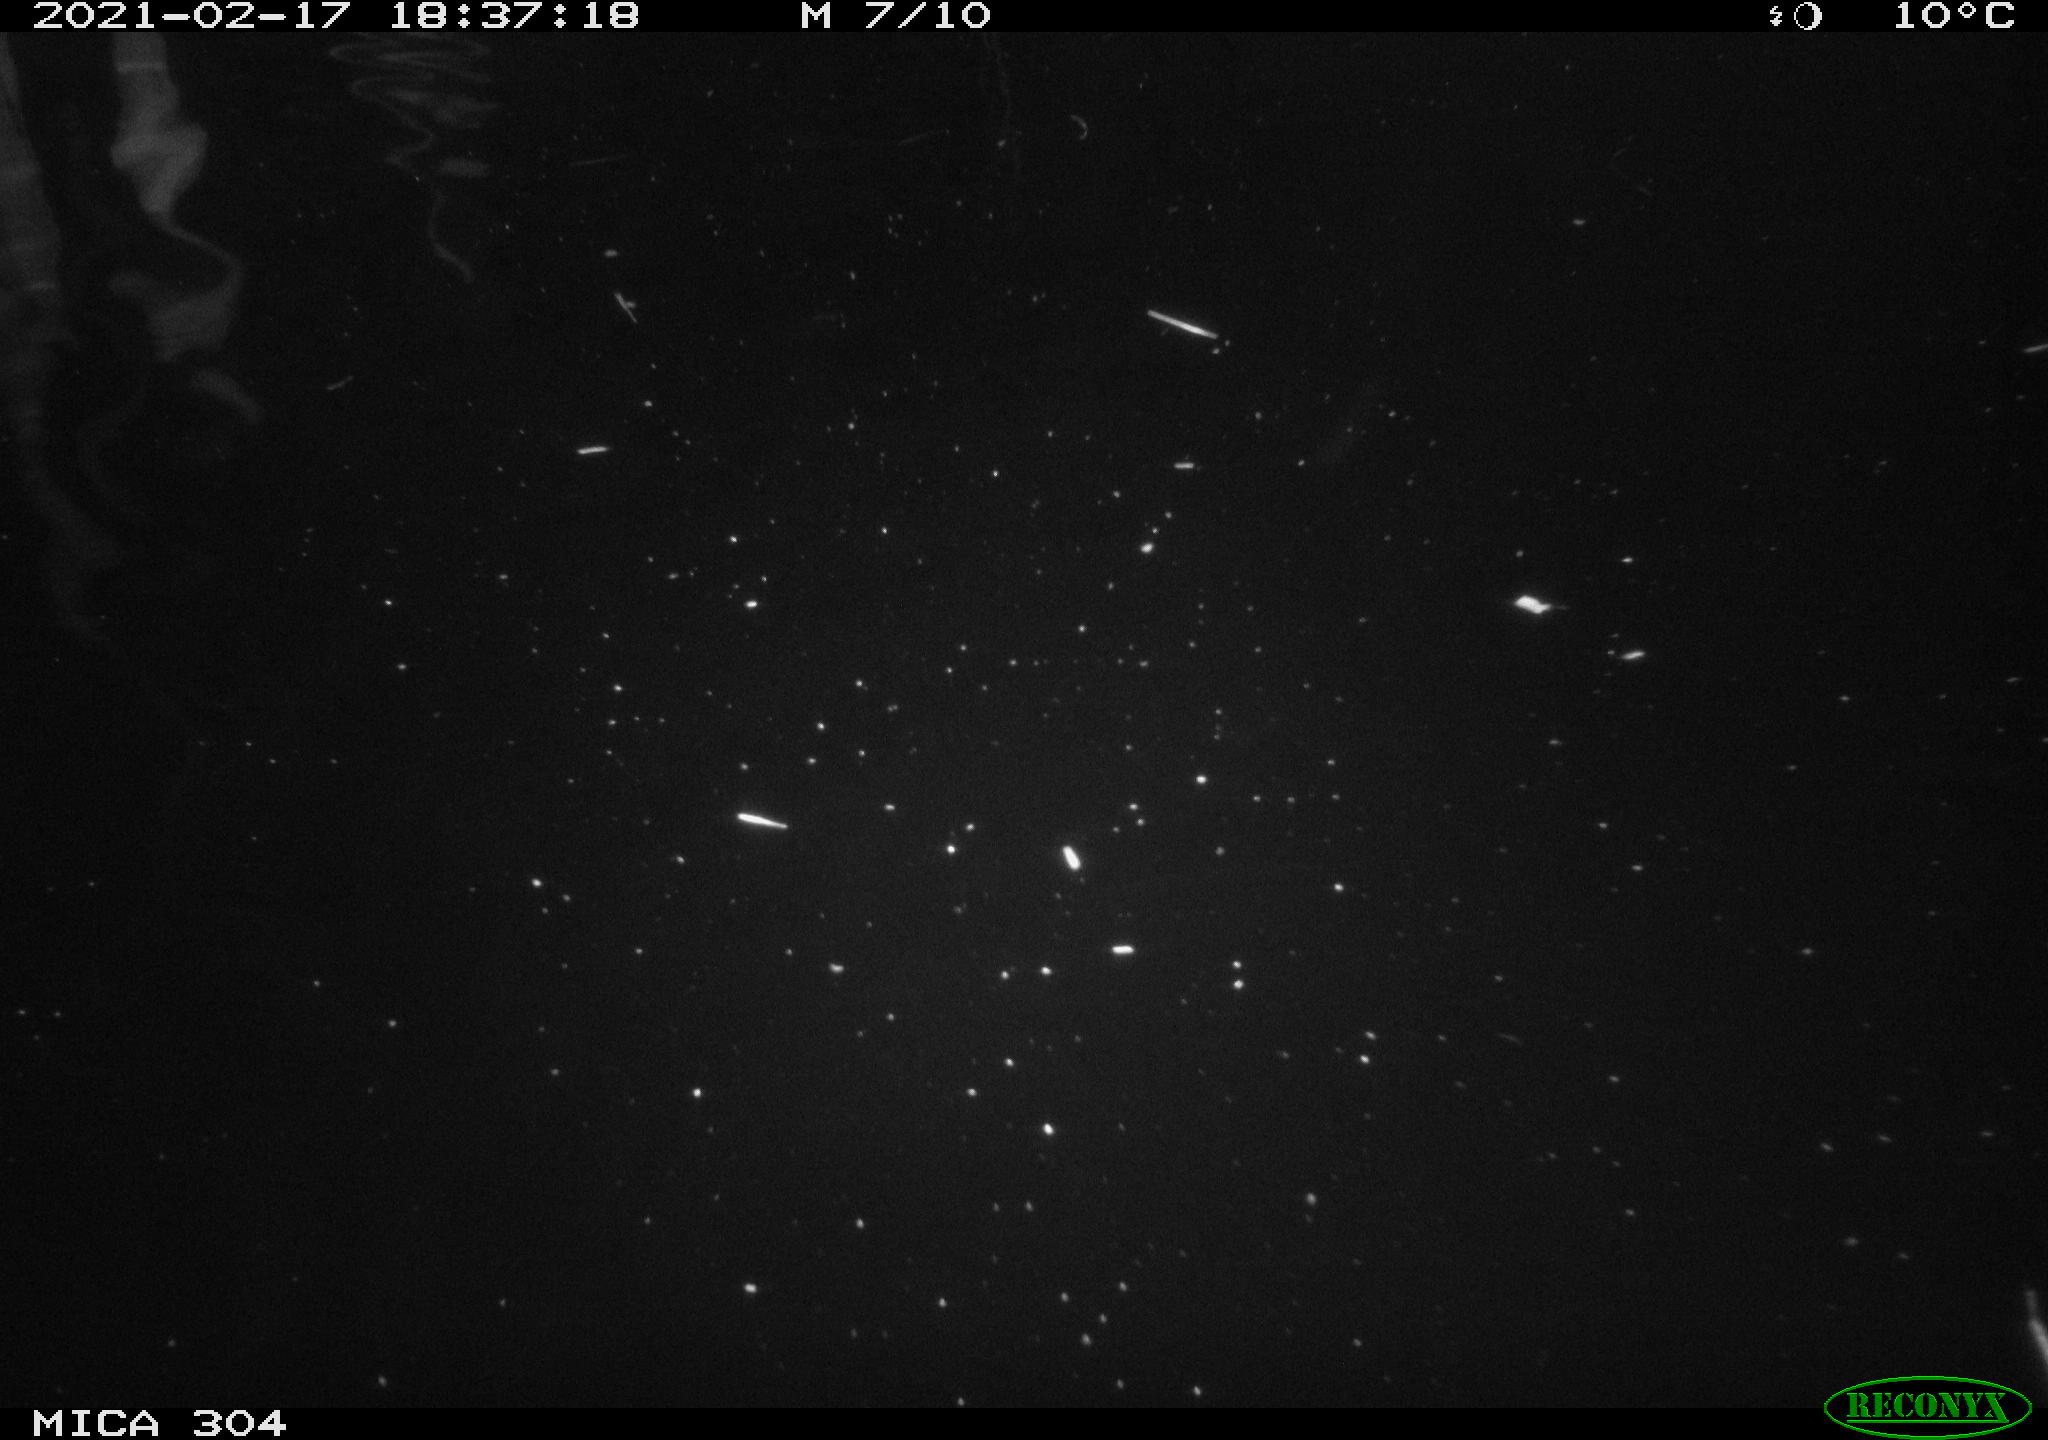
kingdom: Animalia
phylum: Chordata
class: Mammalia
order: Rodentia
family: Cricetidae
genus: Ondatra
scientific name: Ondatra zibethicus
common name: Muskrat
